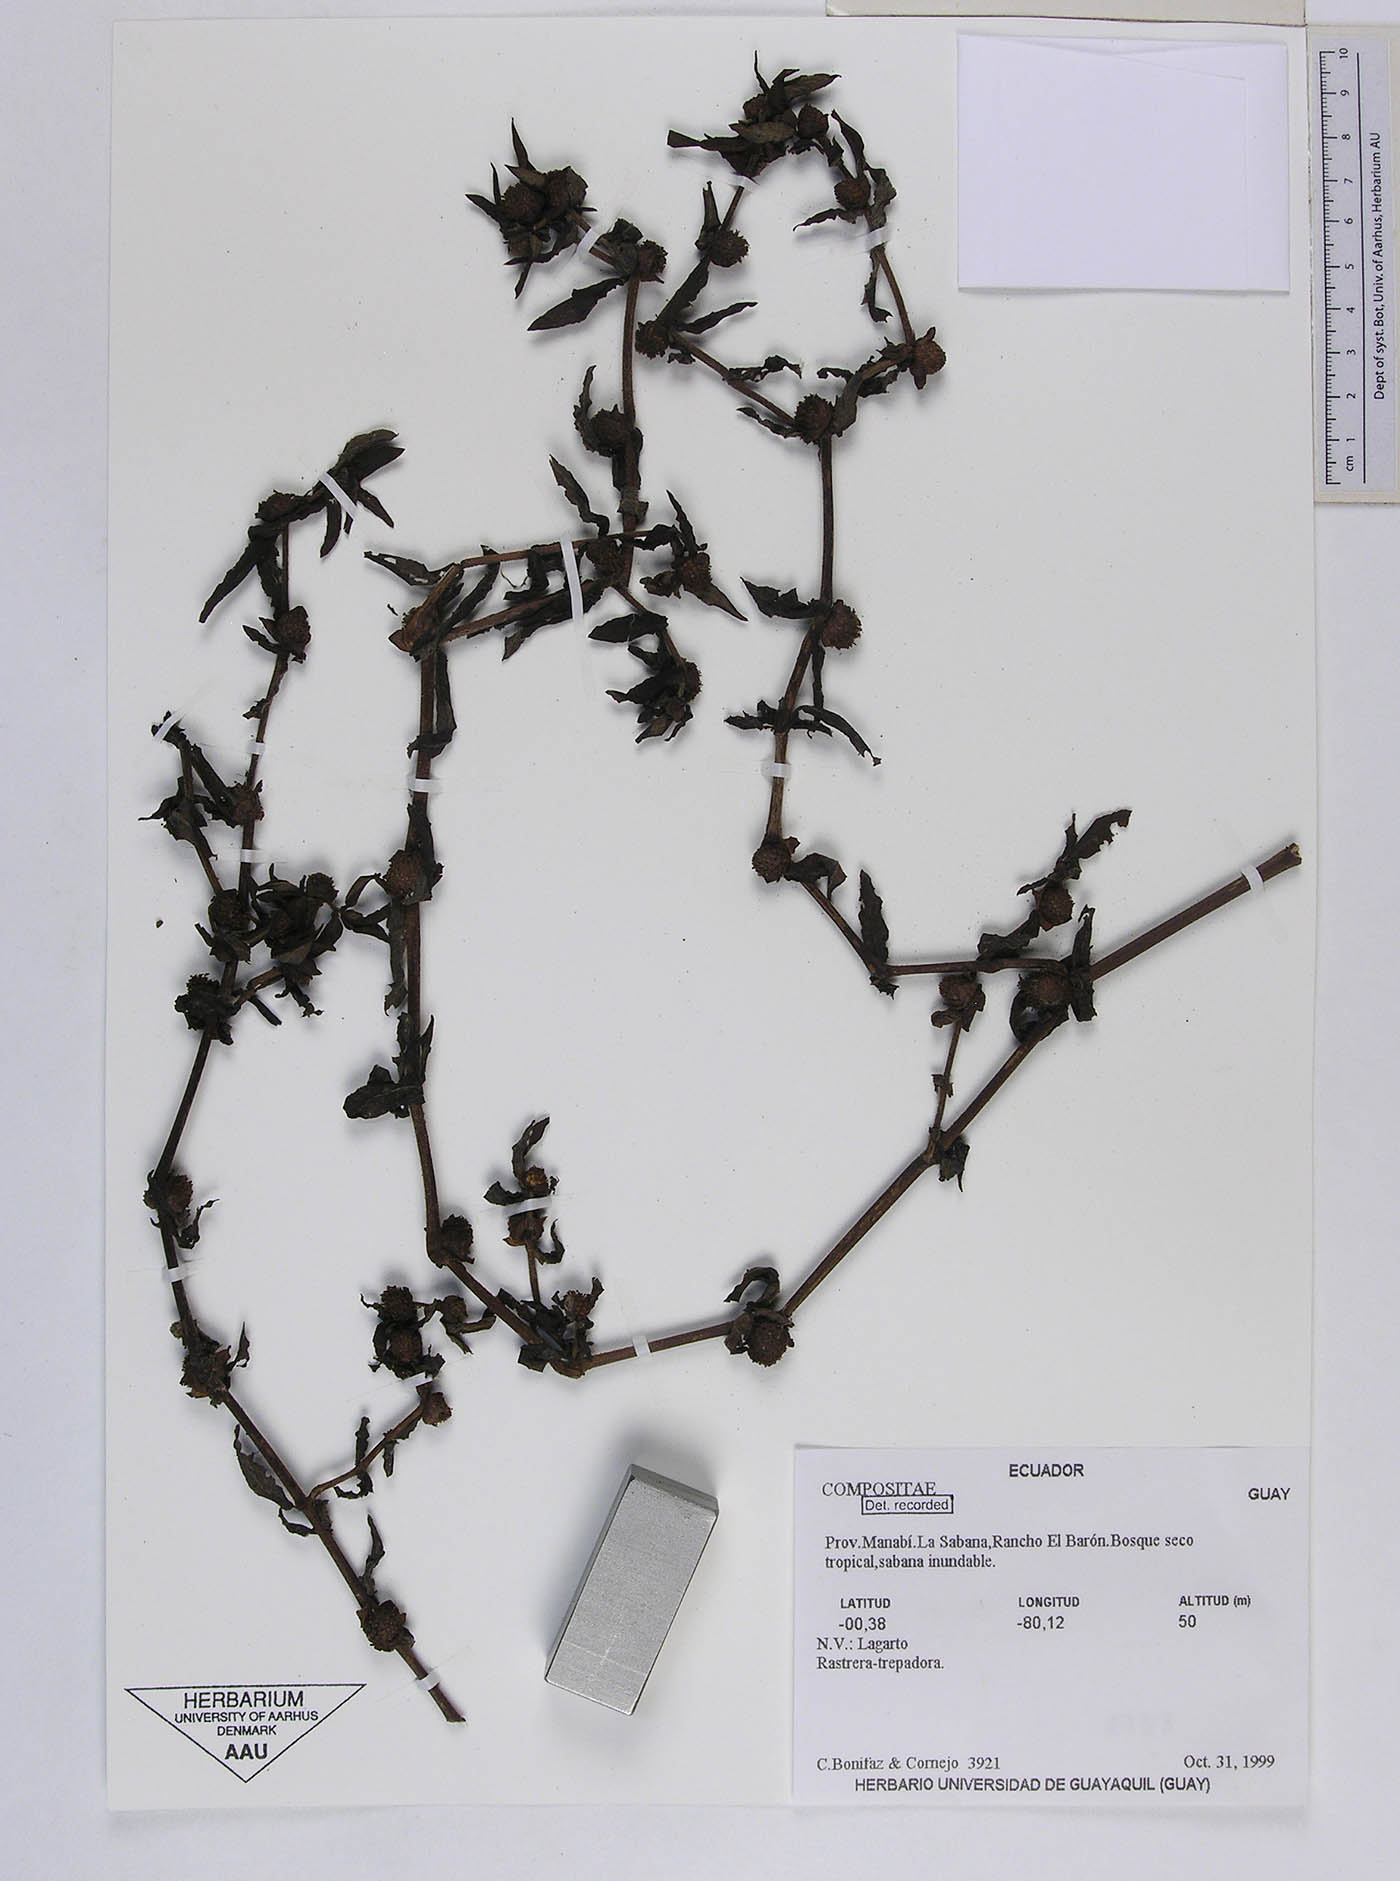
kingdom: Plantae
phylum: Tracheophyta
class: Magnoliopsida
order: Asterales
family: Asteraceae
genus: Enydra
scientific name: Enydra radicans
